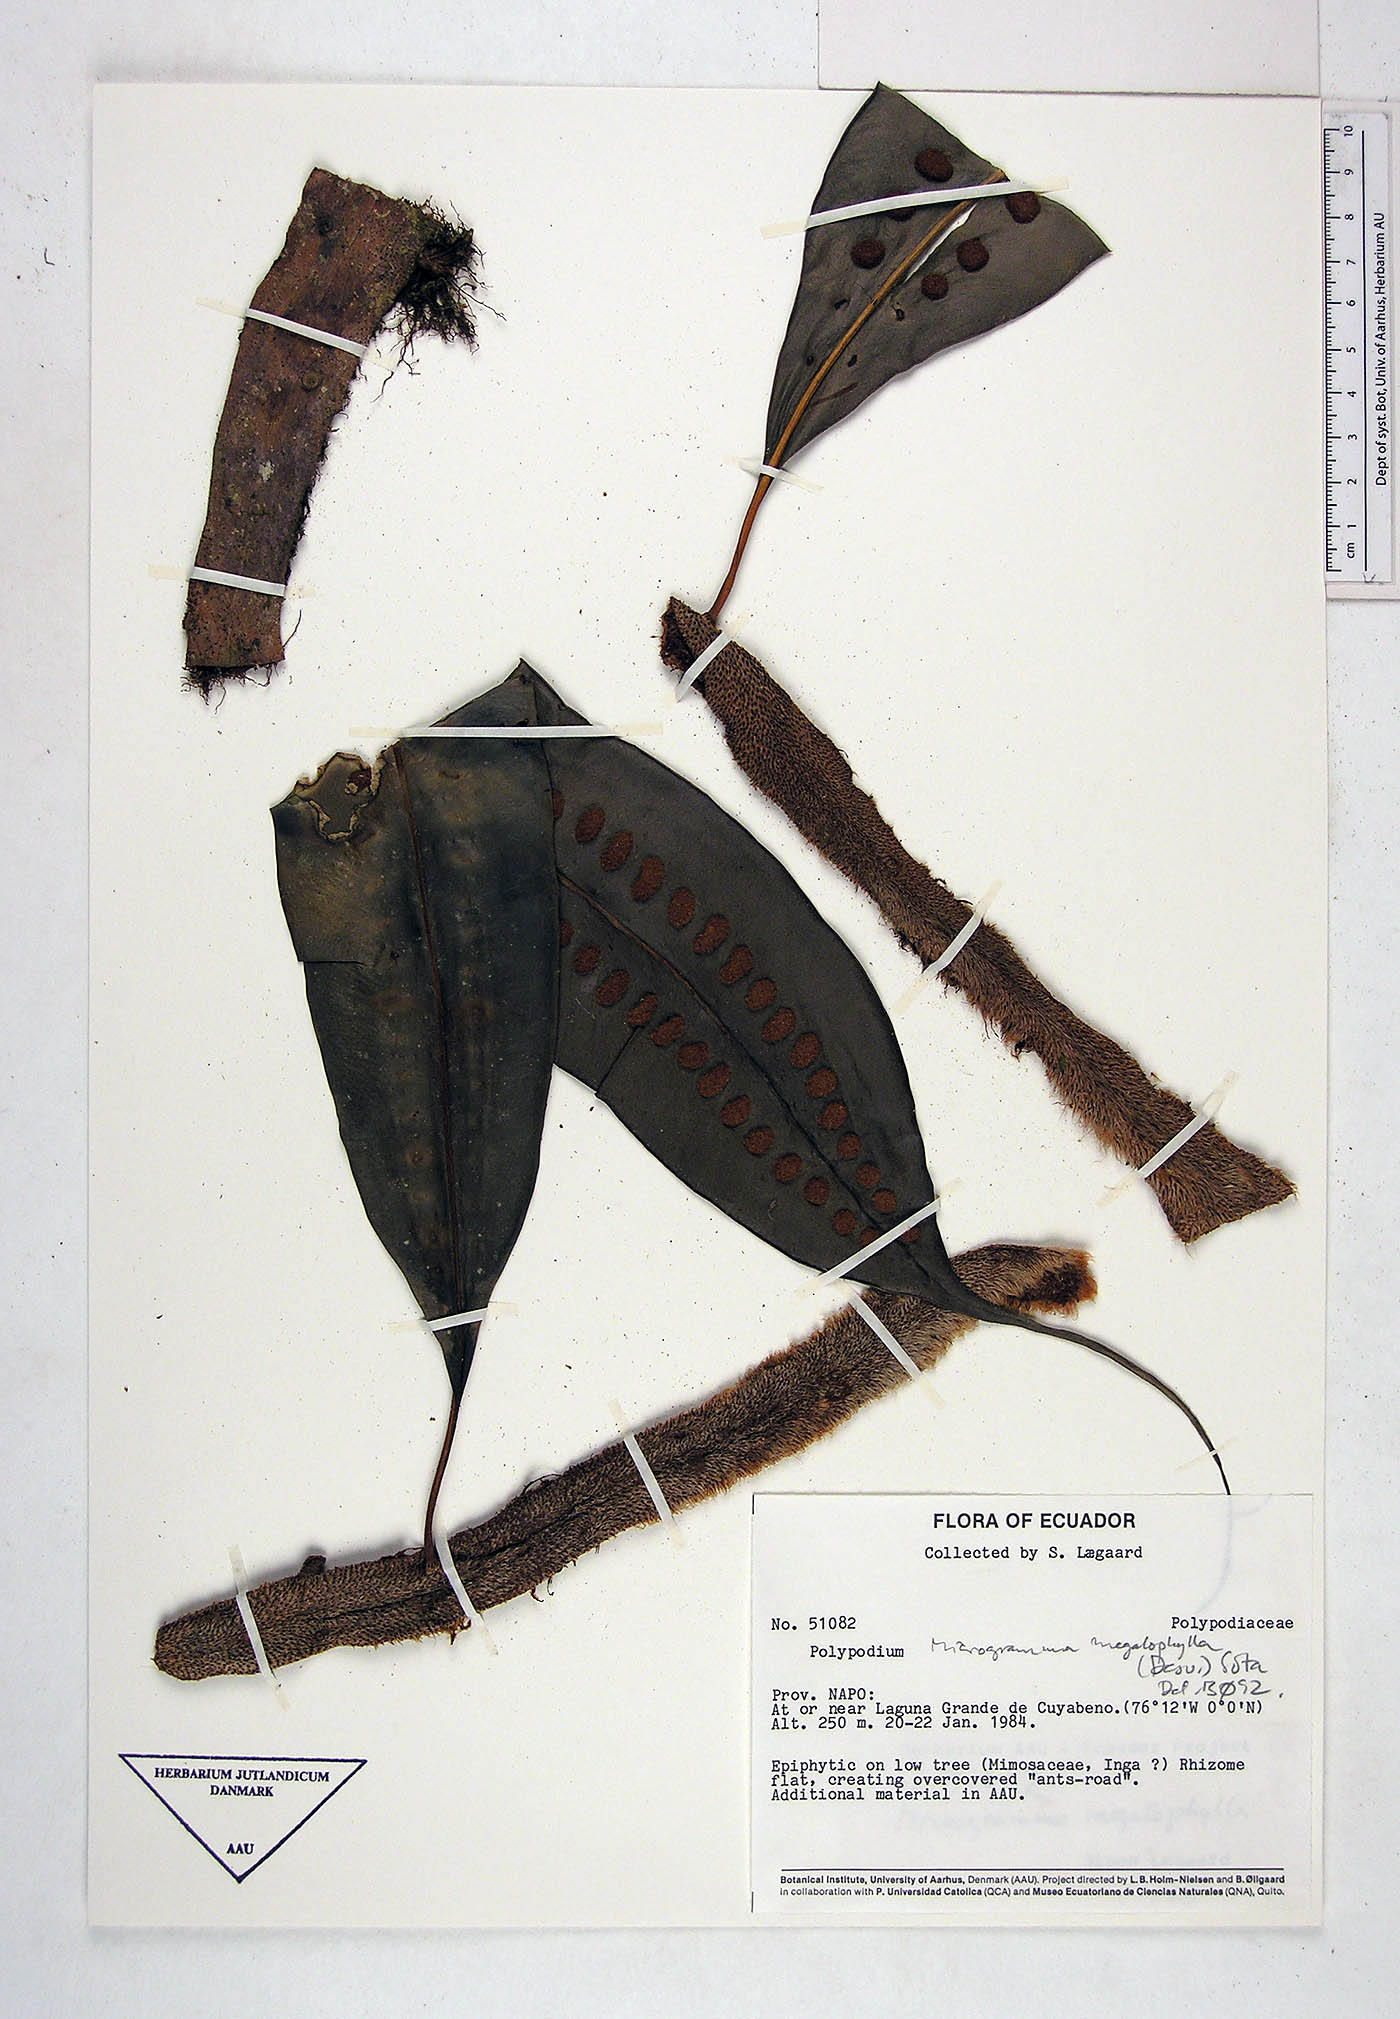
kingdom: Plantae
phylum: Tracheophyta
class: Polypodiopsida
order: Polypodiales
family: Polypodiaceae
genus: Microgramma
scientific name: Microgramma megalophylla
